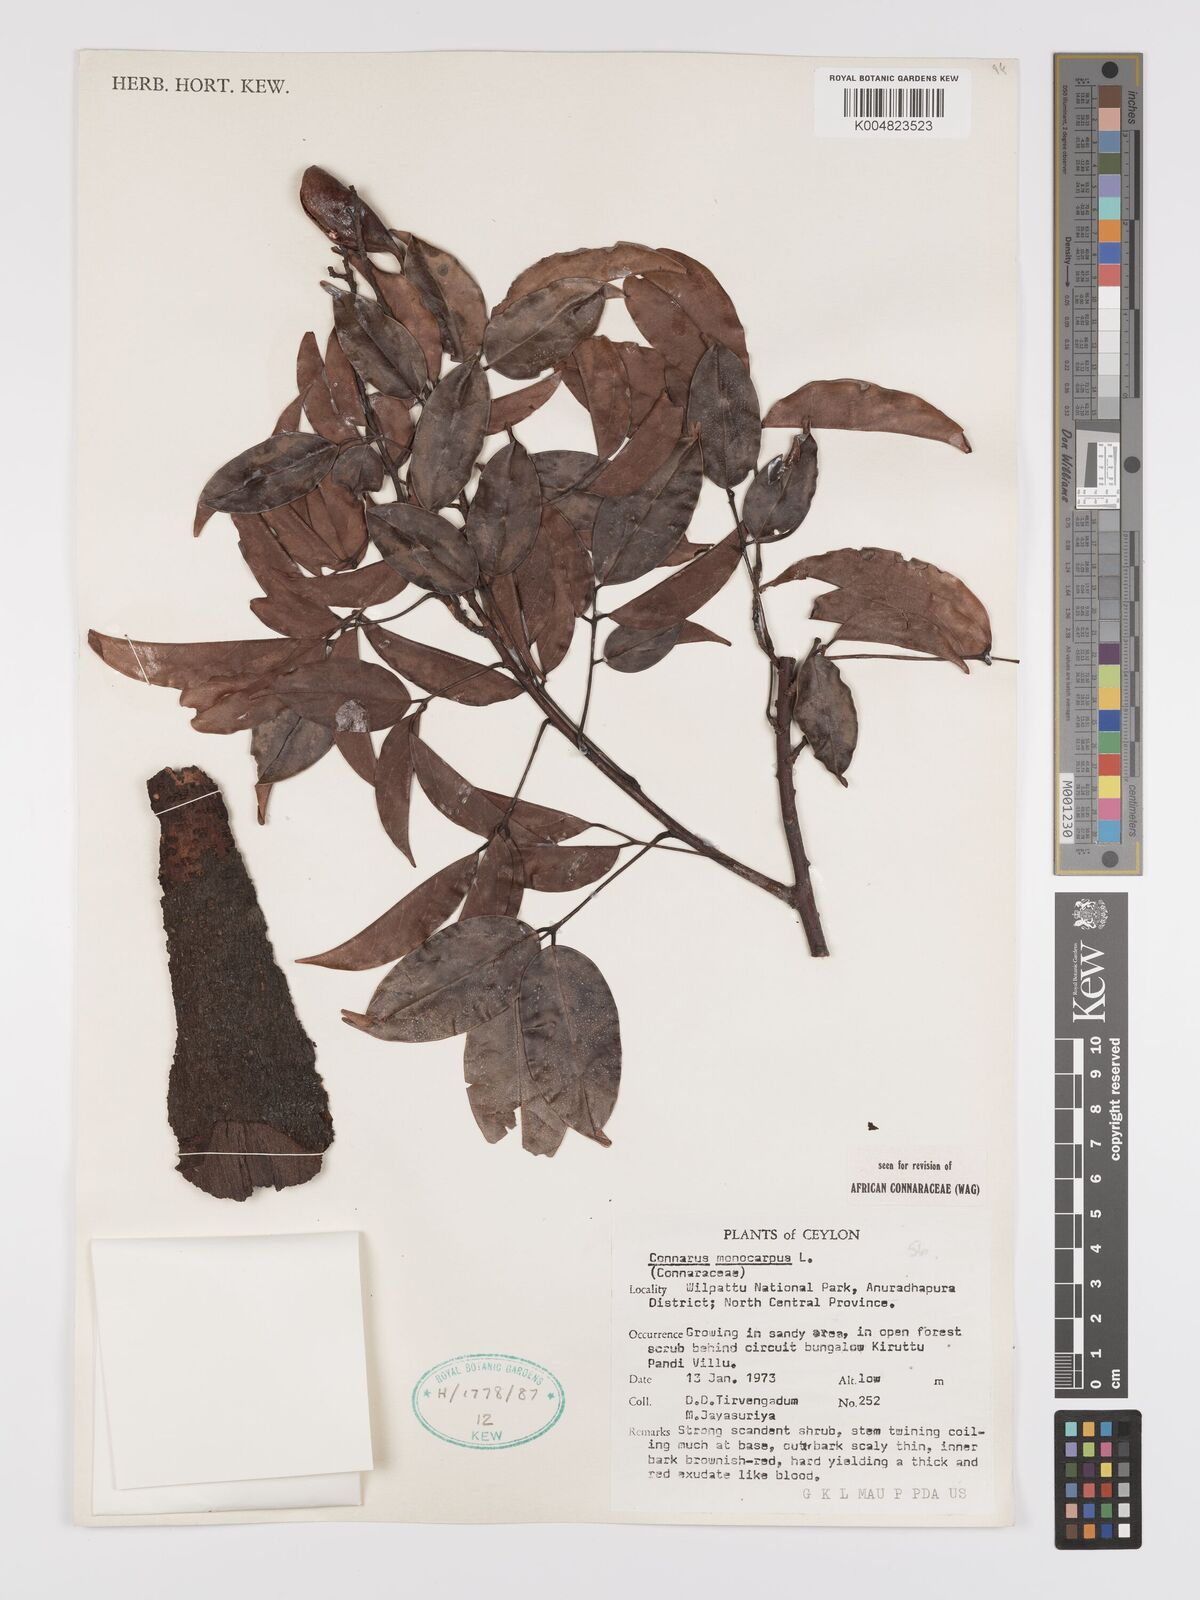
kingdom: Plantae
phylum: Tracheophyta
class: Magnoliopsida
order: Oxalidales
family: Connaraceae
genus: Connarus
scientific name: Connarus semidecandrus
